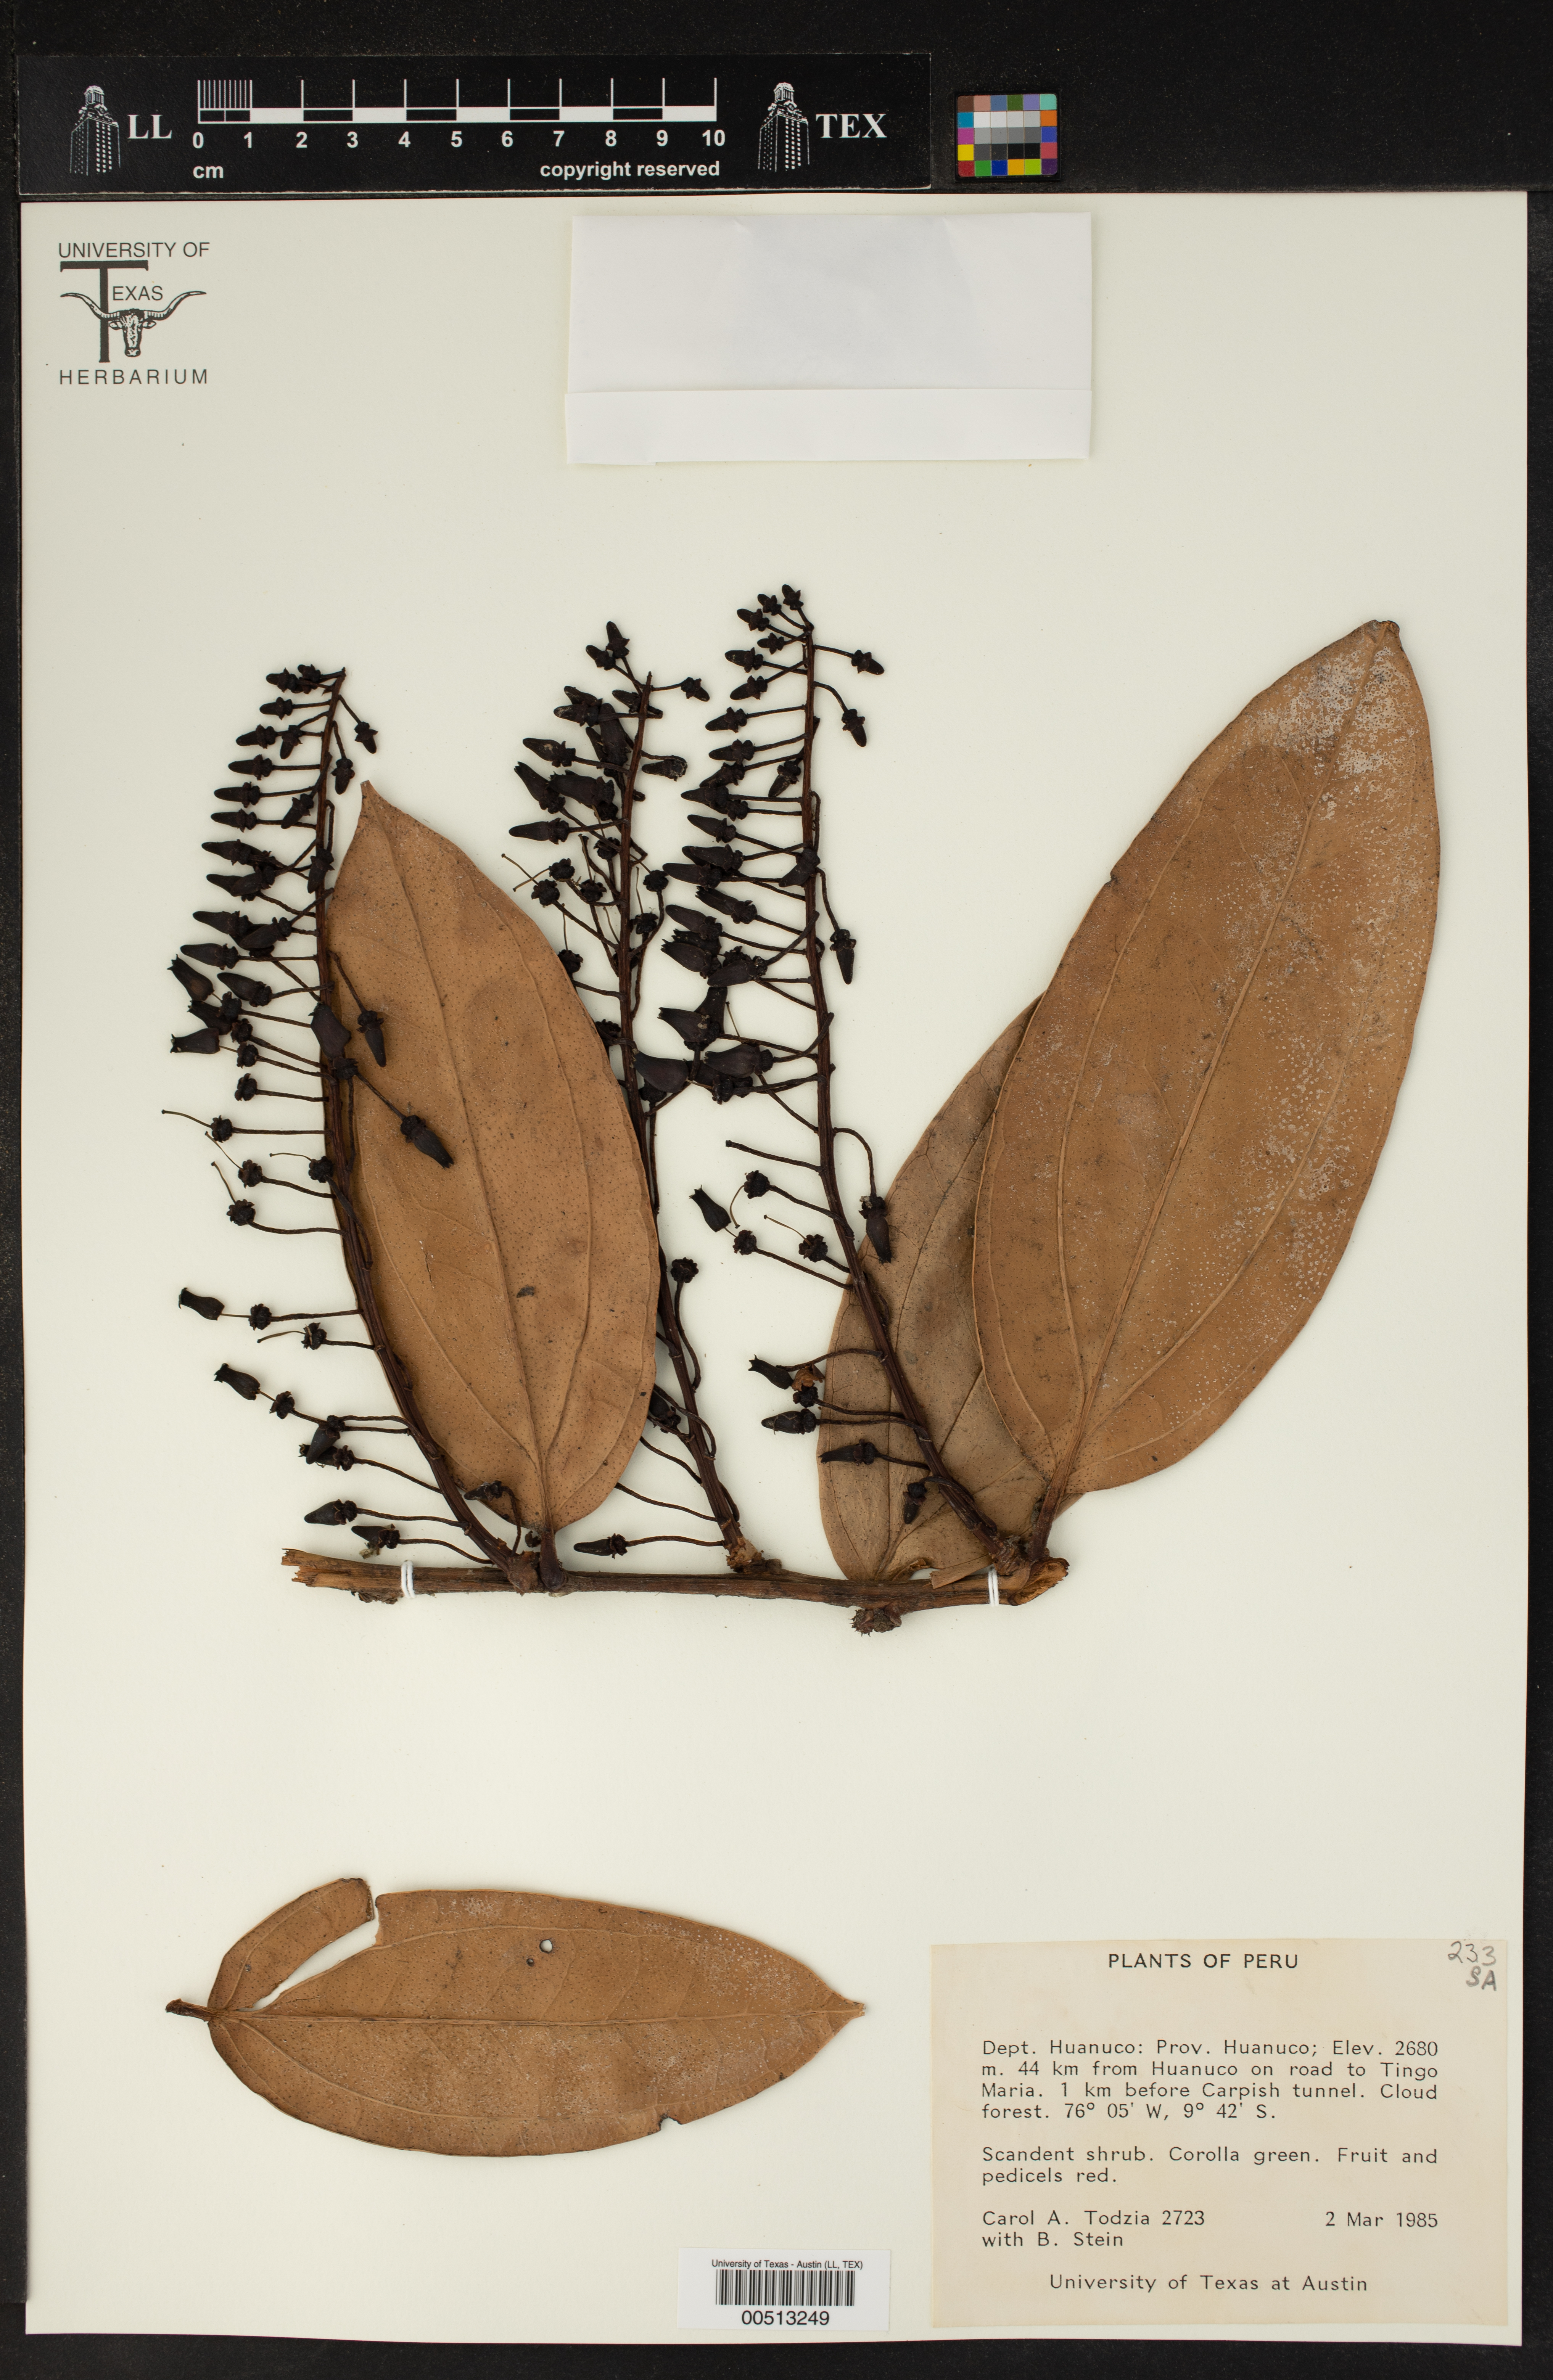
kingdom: Plantae
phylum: Tracheophyta
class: Magnoliopsida
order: Ericales
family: Ericaceae
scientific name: Ericaceae
